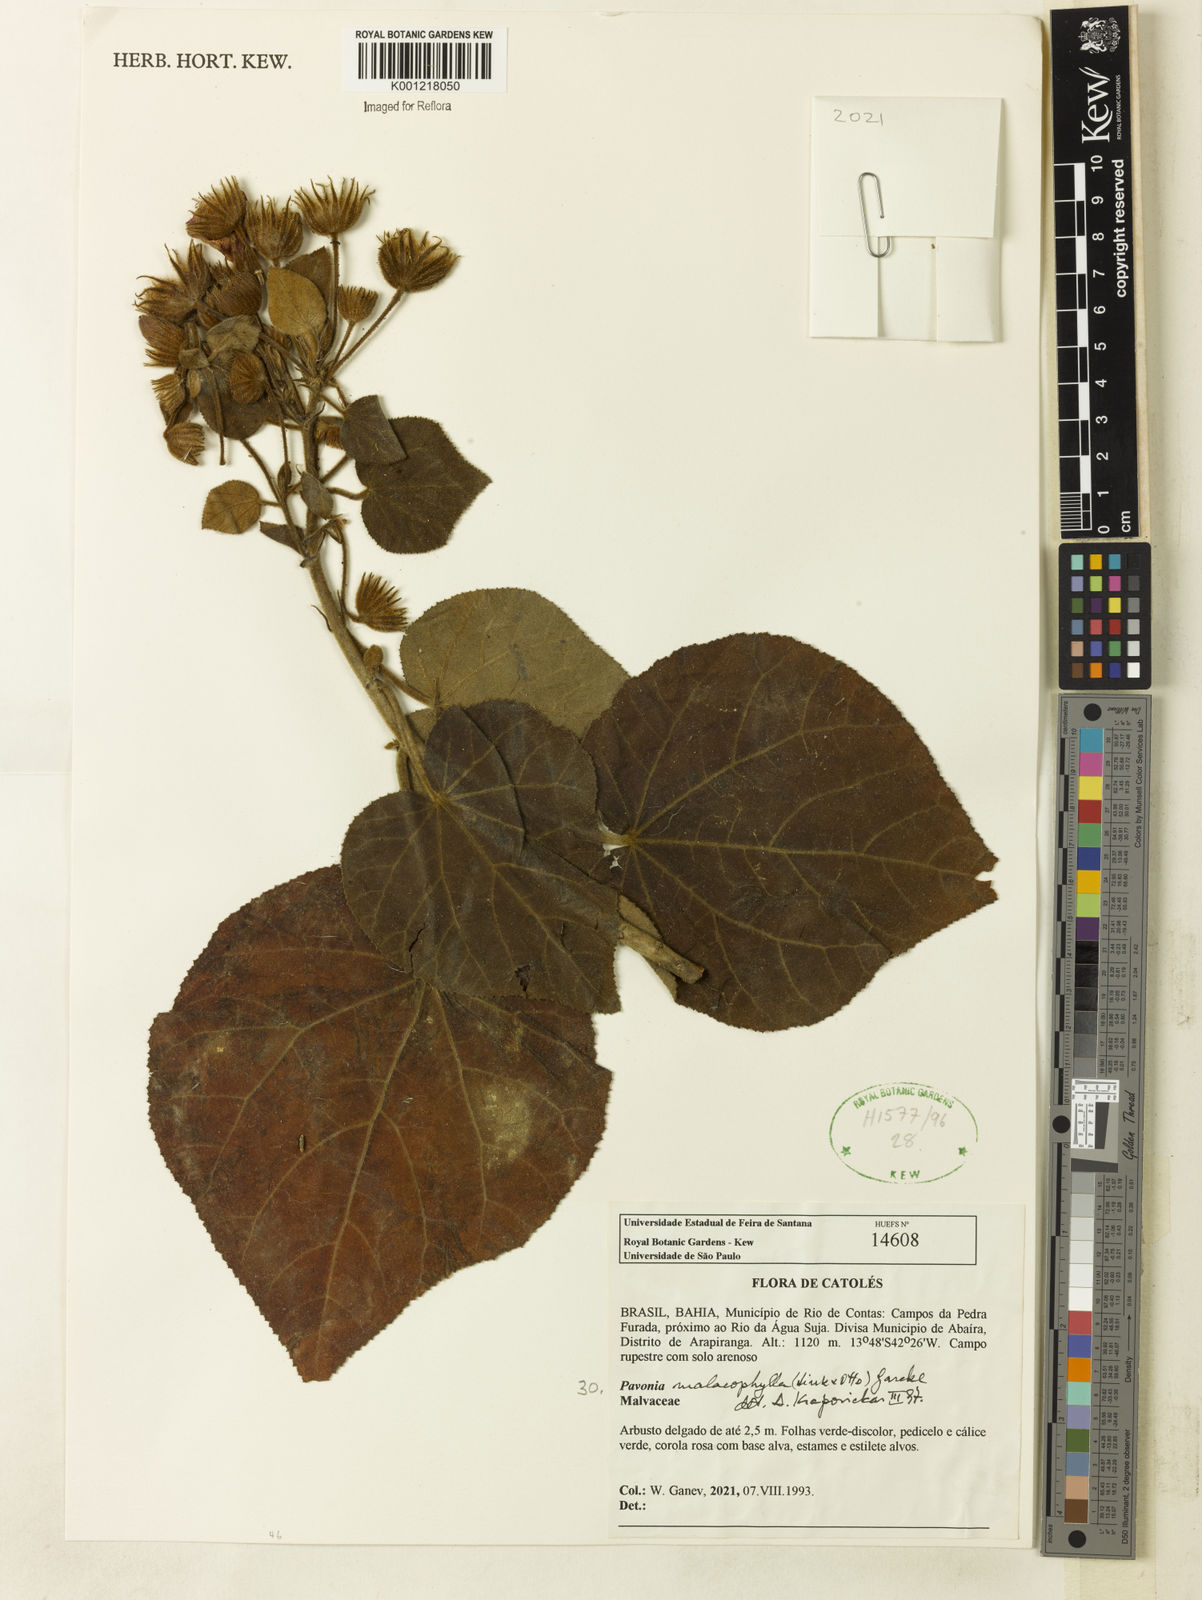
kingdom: Plantae
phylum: Tracheophyta
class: Magnoliopsida
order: Malvales
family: Malvaceae
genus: Pavonia
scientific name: Pavonia malacophylla
